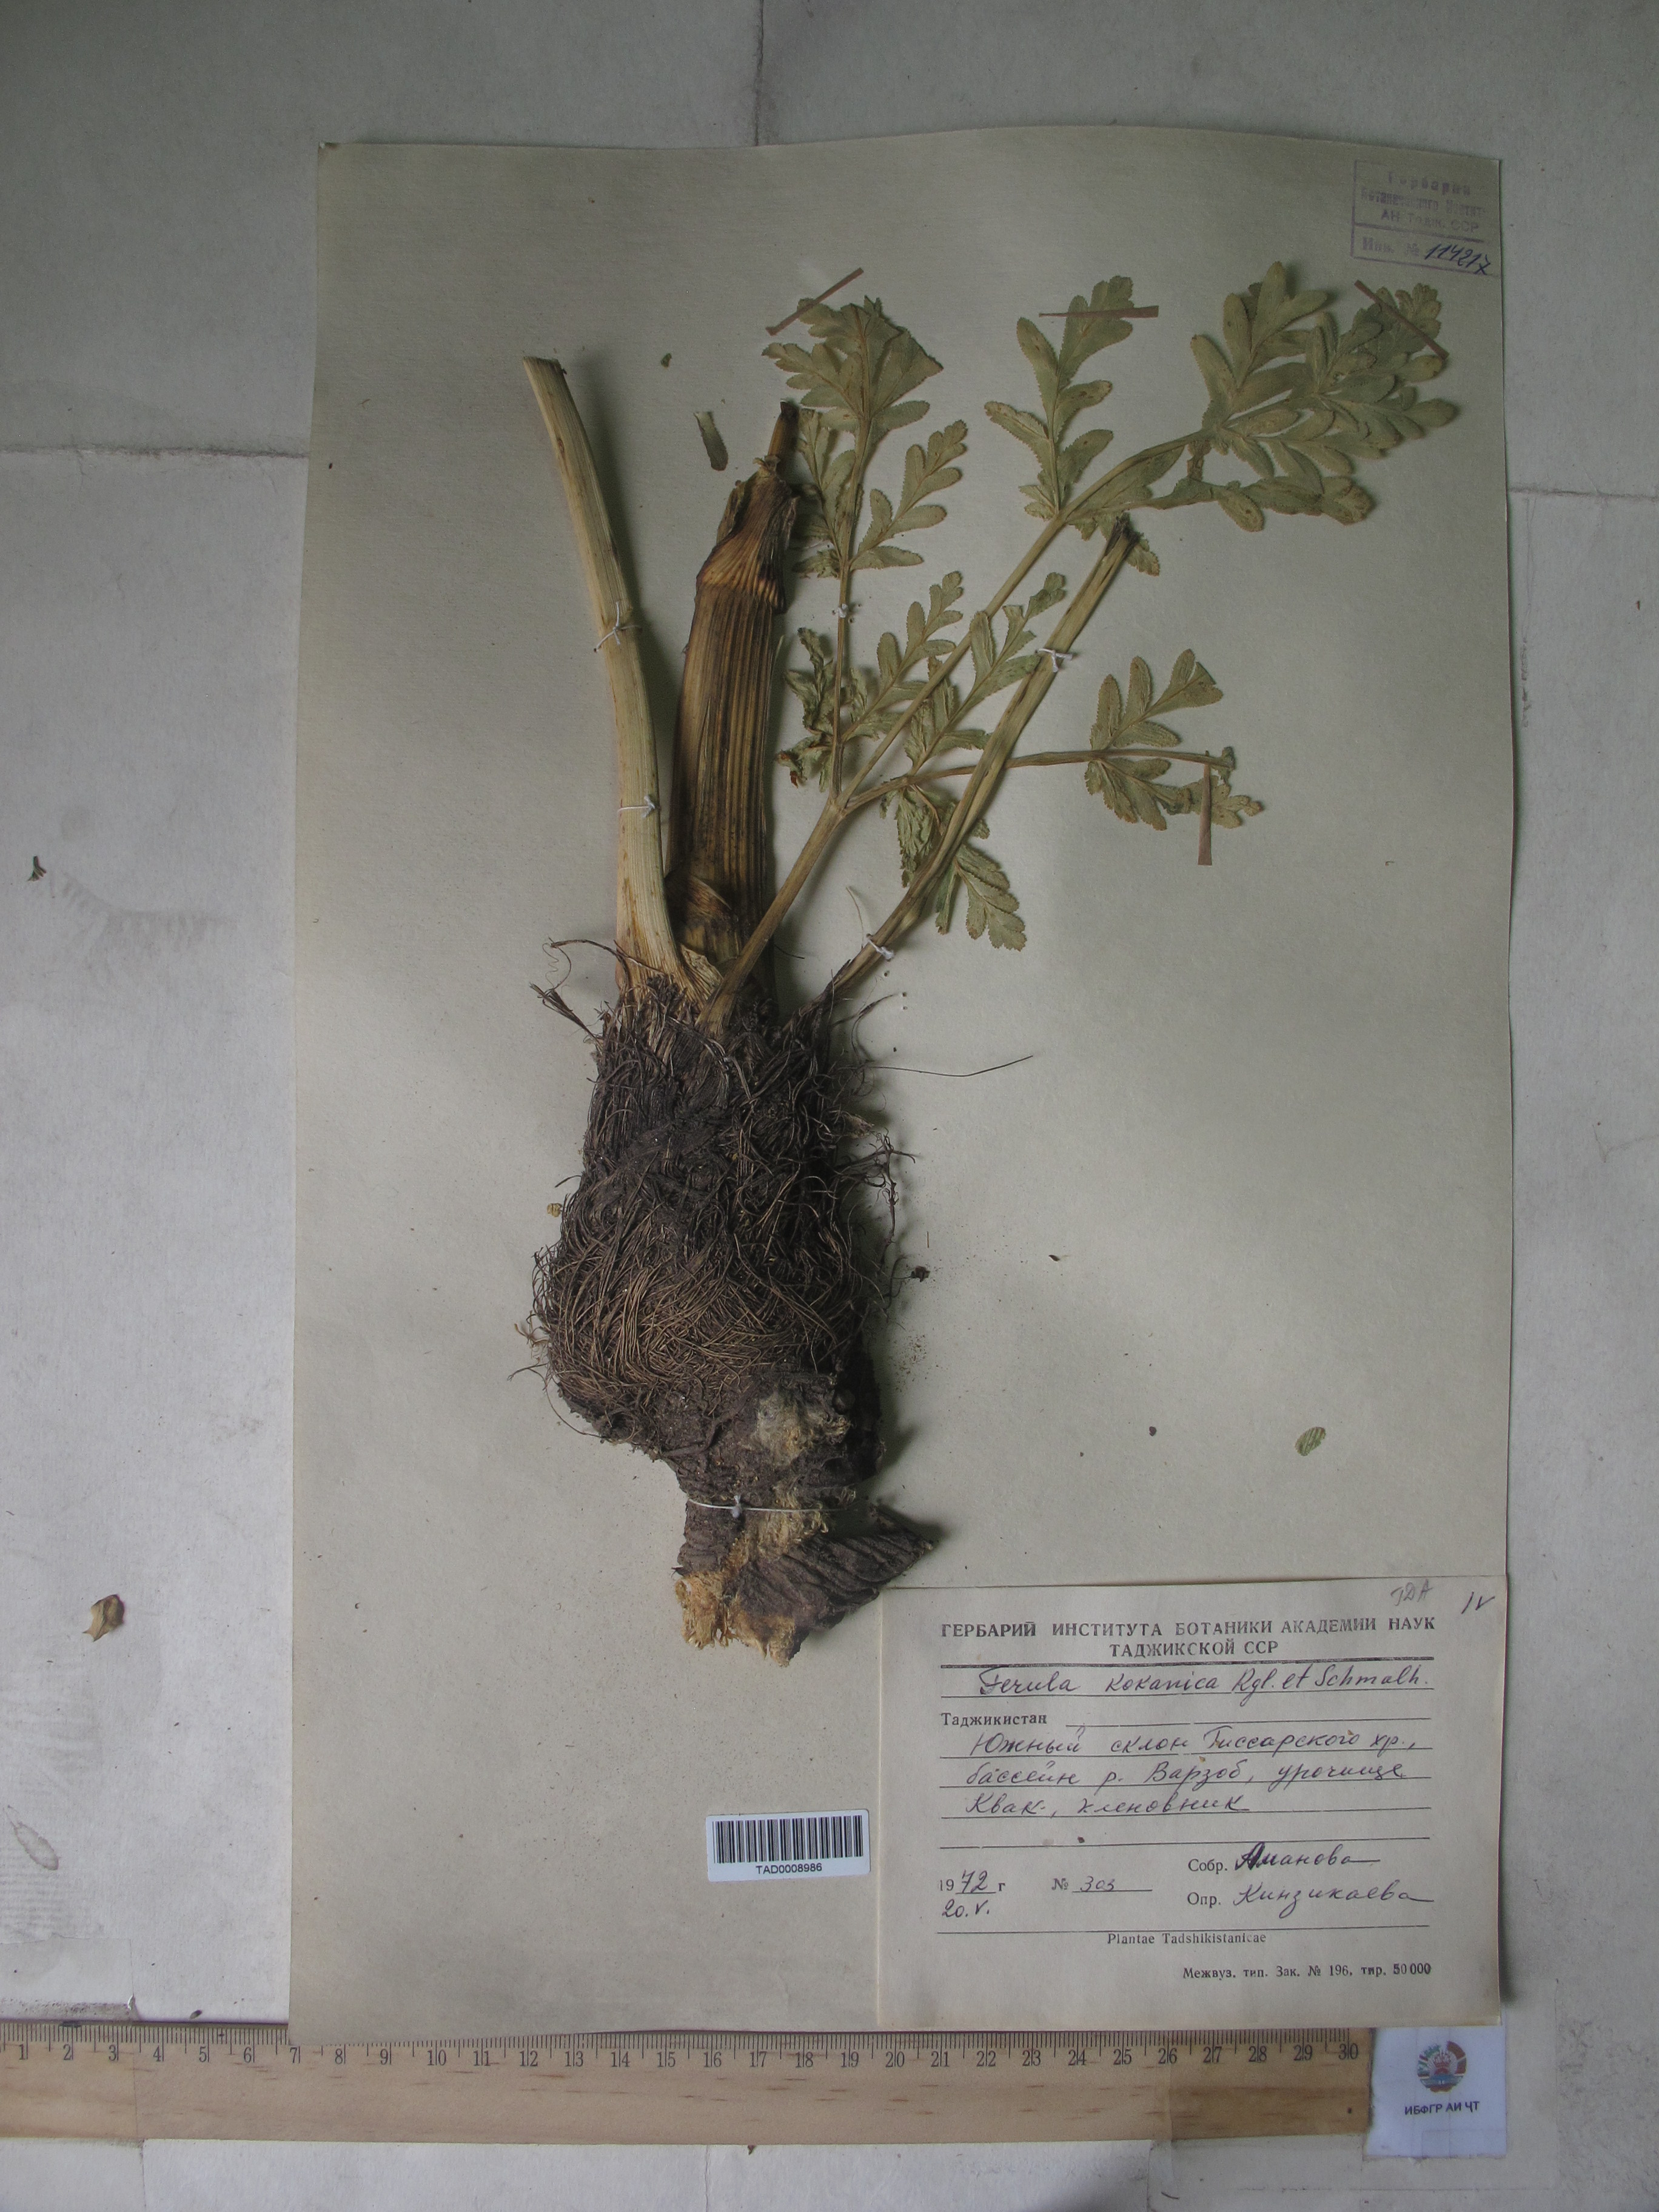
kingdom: Plantae
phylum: Tracheophyta
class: Magnoliopsida
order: Apiales
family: Apiaceae
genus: Ferula
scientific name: Ferula kokanica
